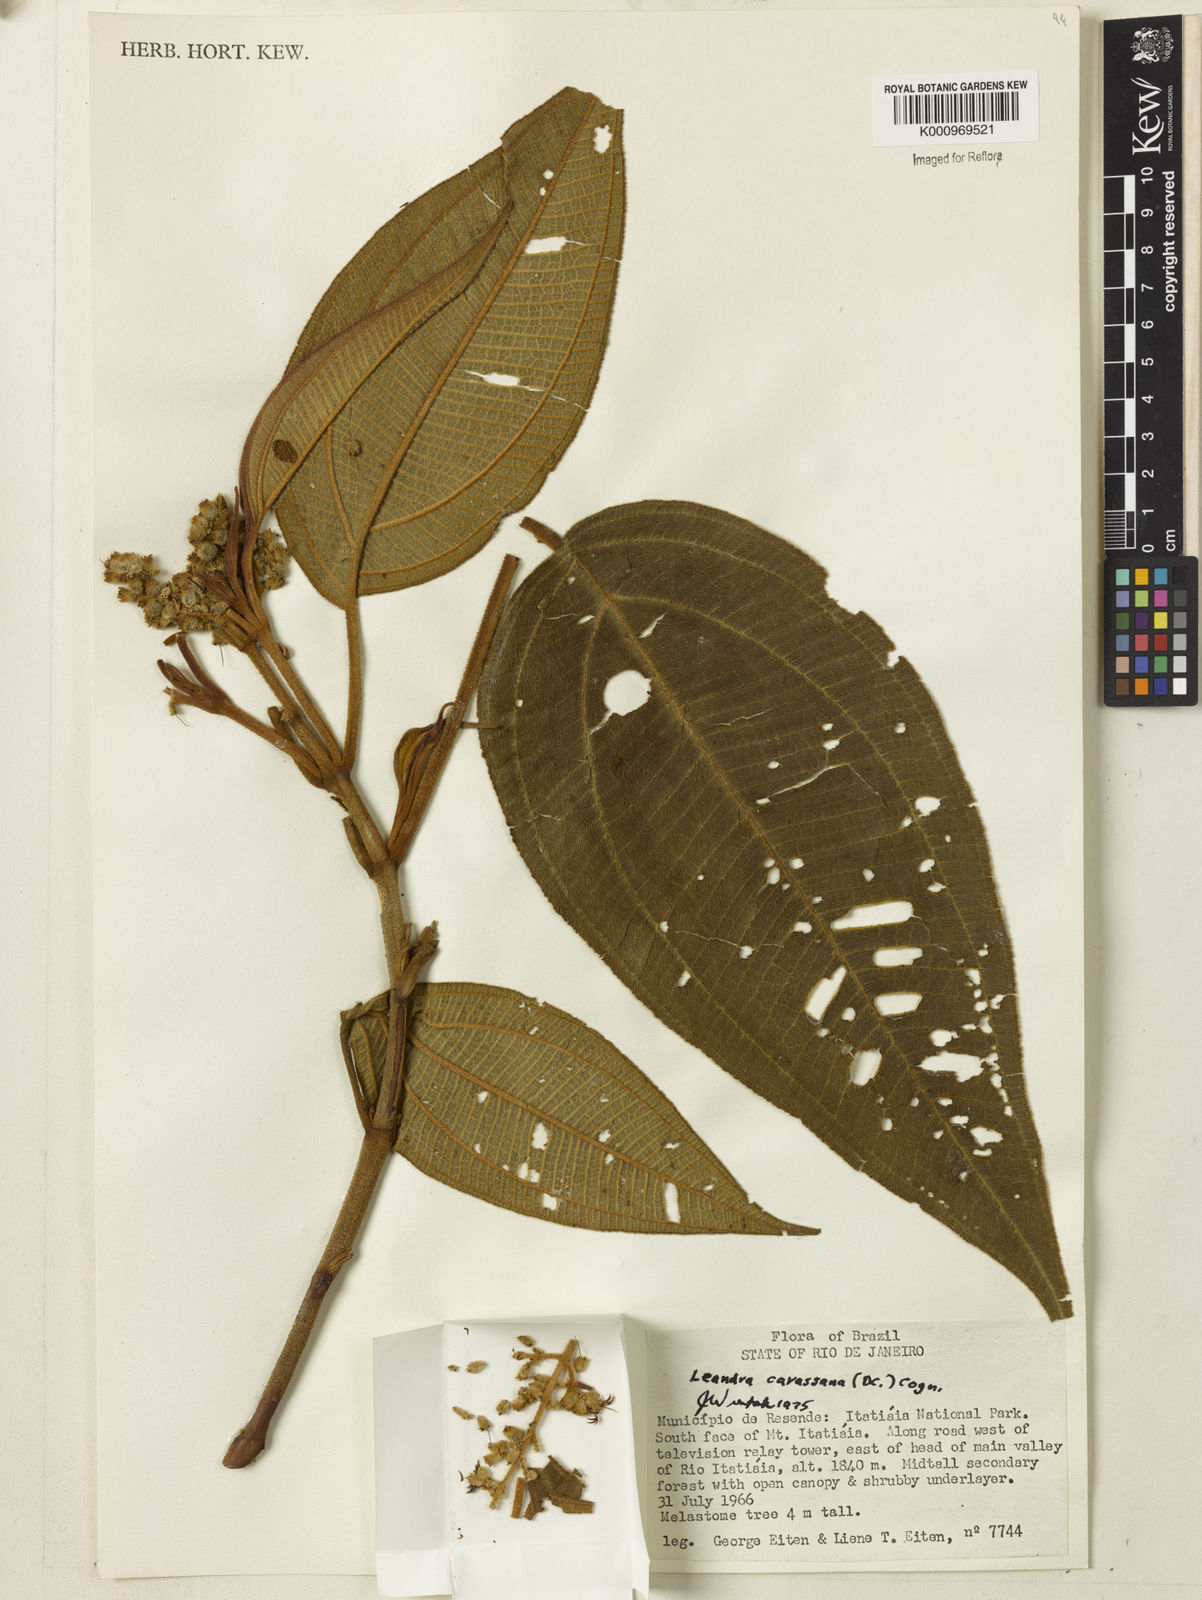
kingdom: Plantae
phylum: Tracheophyta
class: Magnoliopsida
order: Myrtales
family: Melastomataceae
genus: Miconia
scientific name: Miconia sublanata
